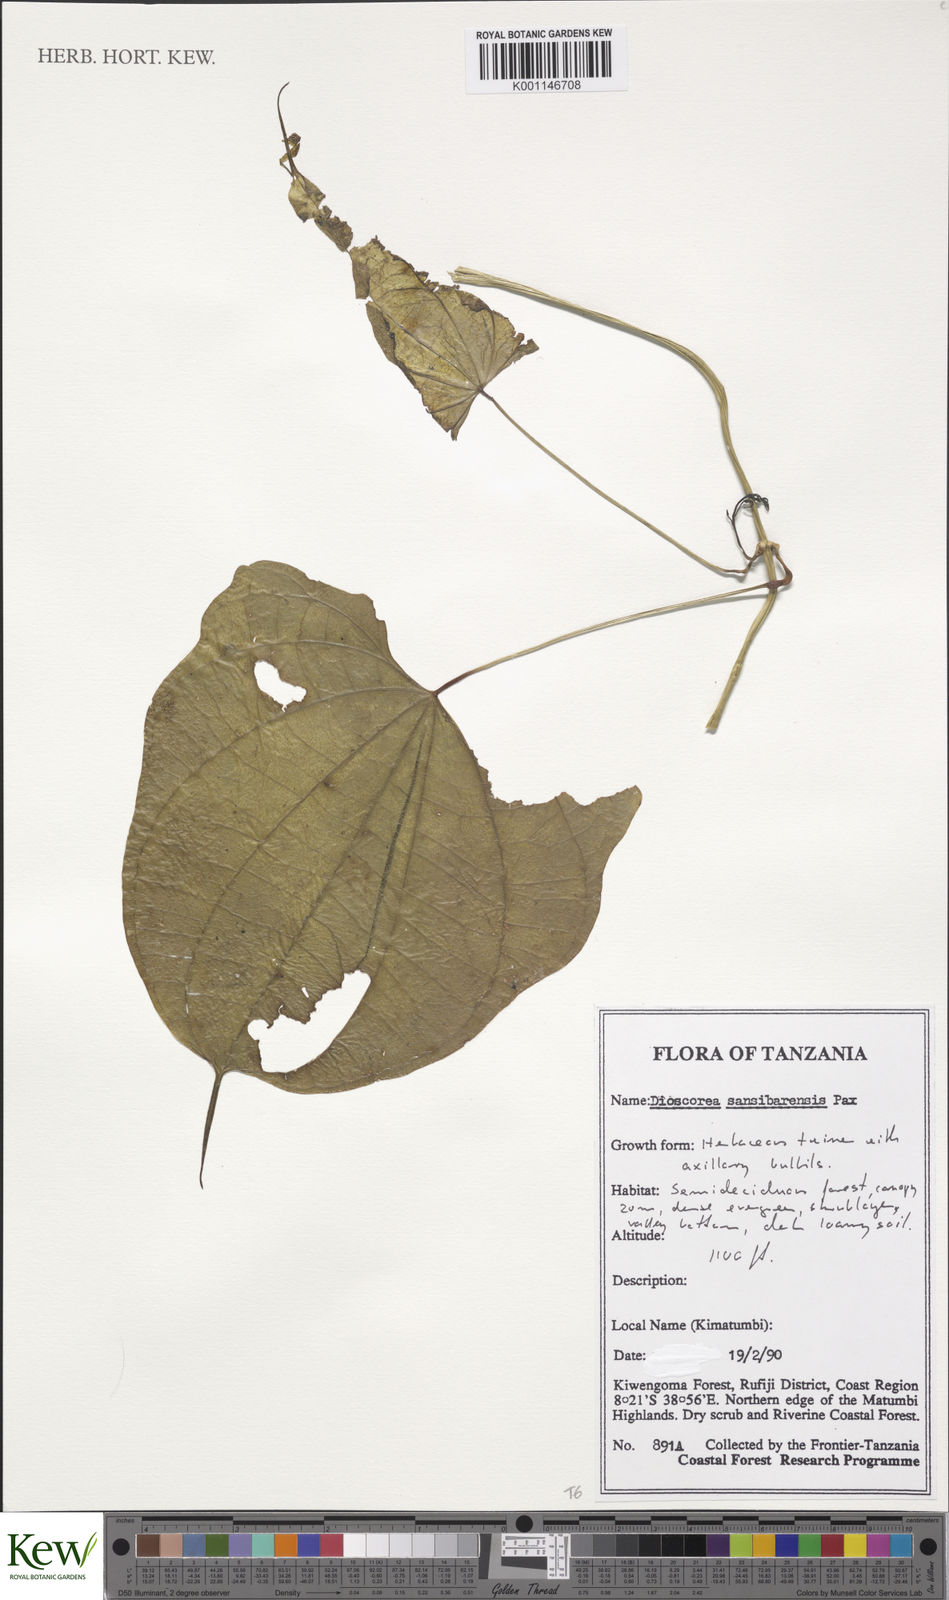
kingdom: Plantae
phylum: Tracheophyta
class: Liliopsida
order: Dioscoreales
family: Dioscoreaceae
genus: Dioscorea
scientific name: Dioscorea sansibarensis
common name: Zanzibar yam
